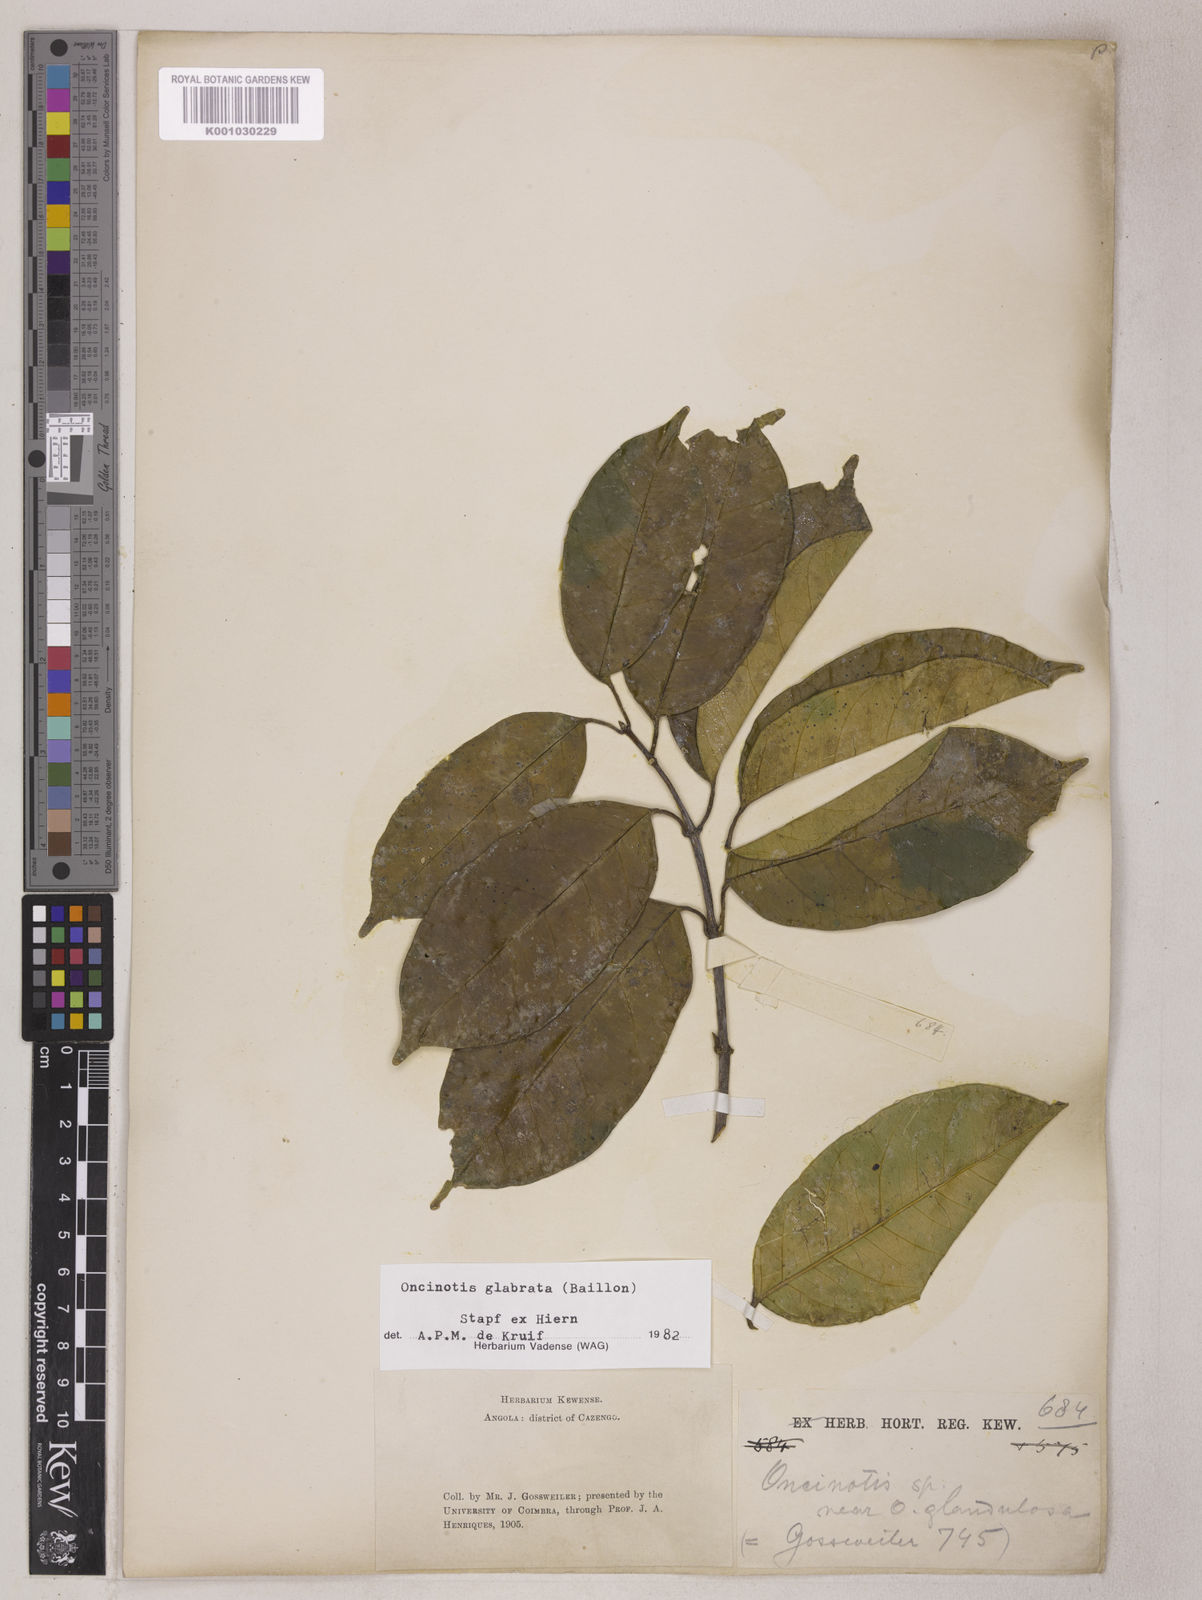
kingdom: Plantae
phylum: Tracheophyta
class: Magnoliopsida
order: Gentianales
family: Apocynaceae
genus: Oncinotis
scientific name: Oncinotis glabrata
